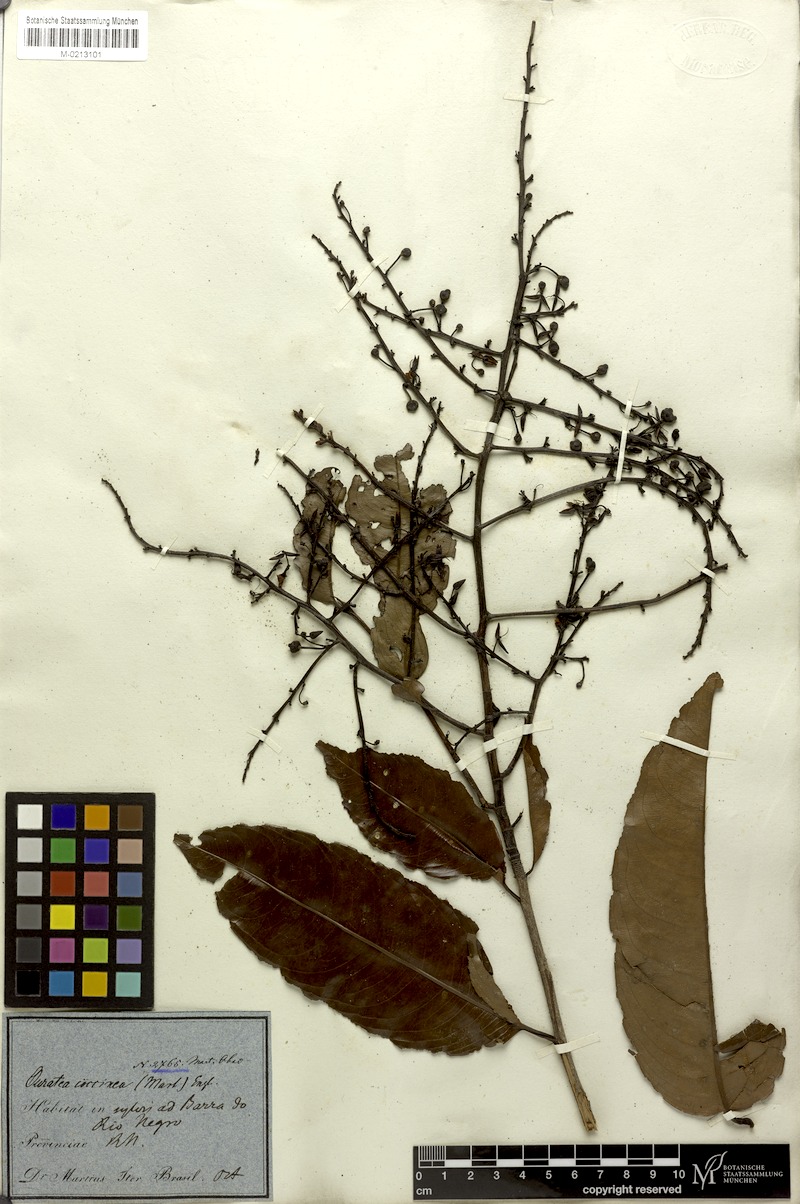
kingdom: Plantae
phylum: Tracheophyta
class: Magnoliopsida
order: Malpighiales
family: Ochnaceae
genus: Ouratea
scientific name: Ouratea coccinea
